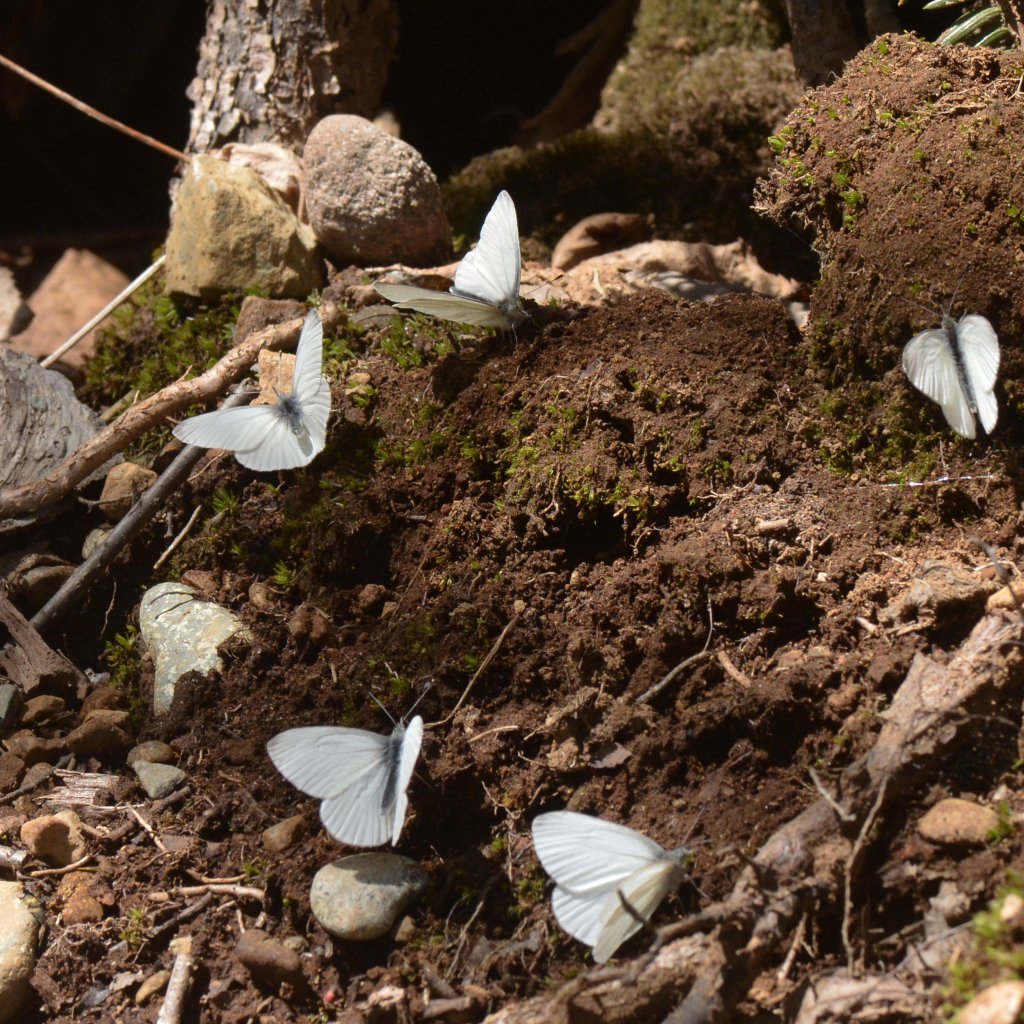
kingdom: Animalia
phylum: Arthropoda
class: Insecta
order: Lepidoptera
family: Pieridae
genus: Pieris
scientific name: Pieris virginiensis
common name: West Virginia White
